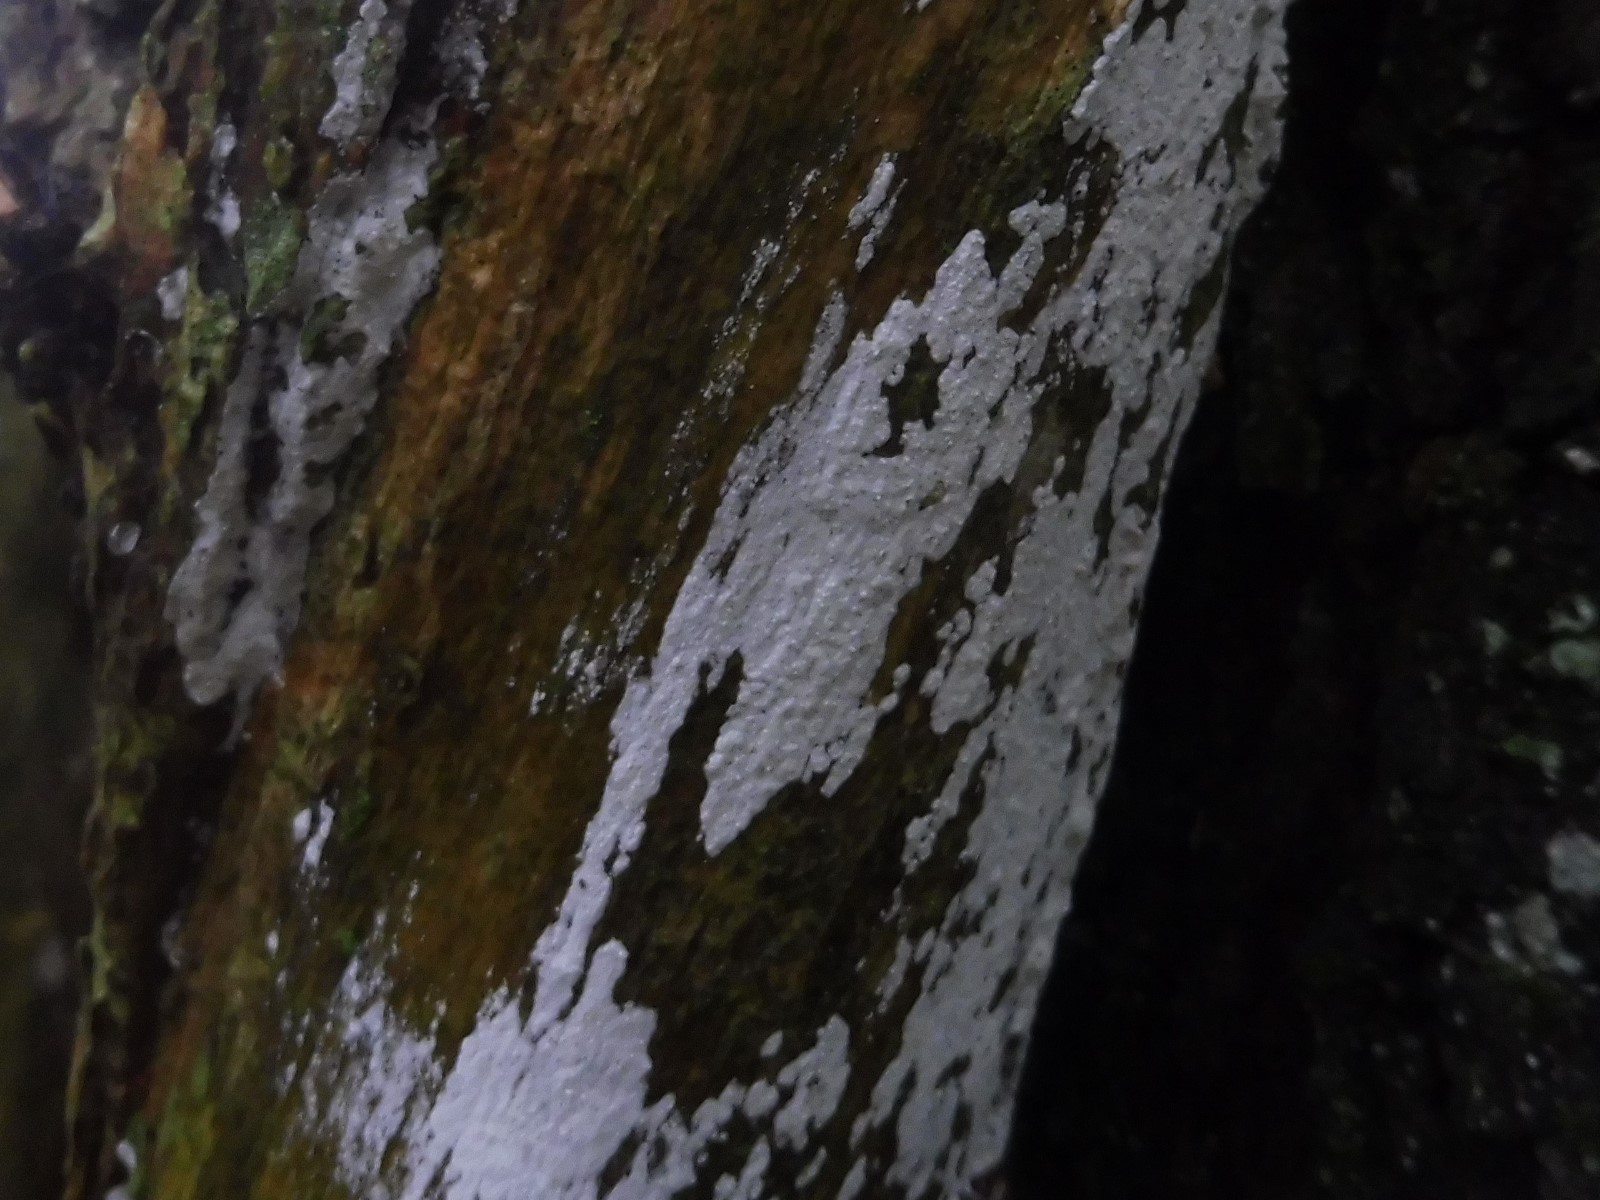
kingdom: Fungi
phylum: Basidiomycota
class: Agaricomycetes
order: Corticiales
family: Corticiaceae
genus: Lyomyces
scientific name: Lyomyces sambuci
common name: almindelig hyldehinde
